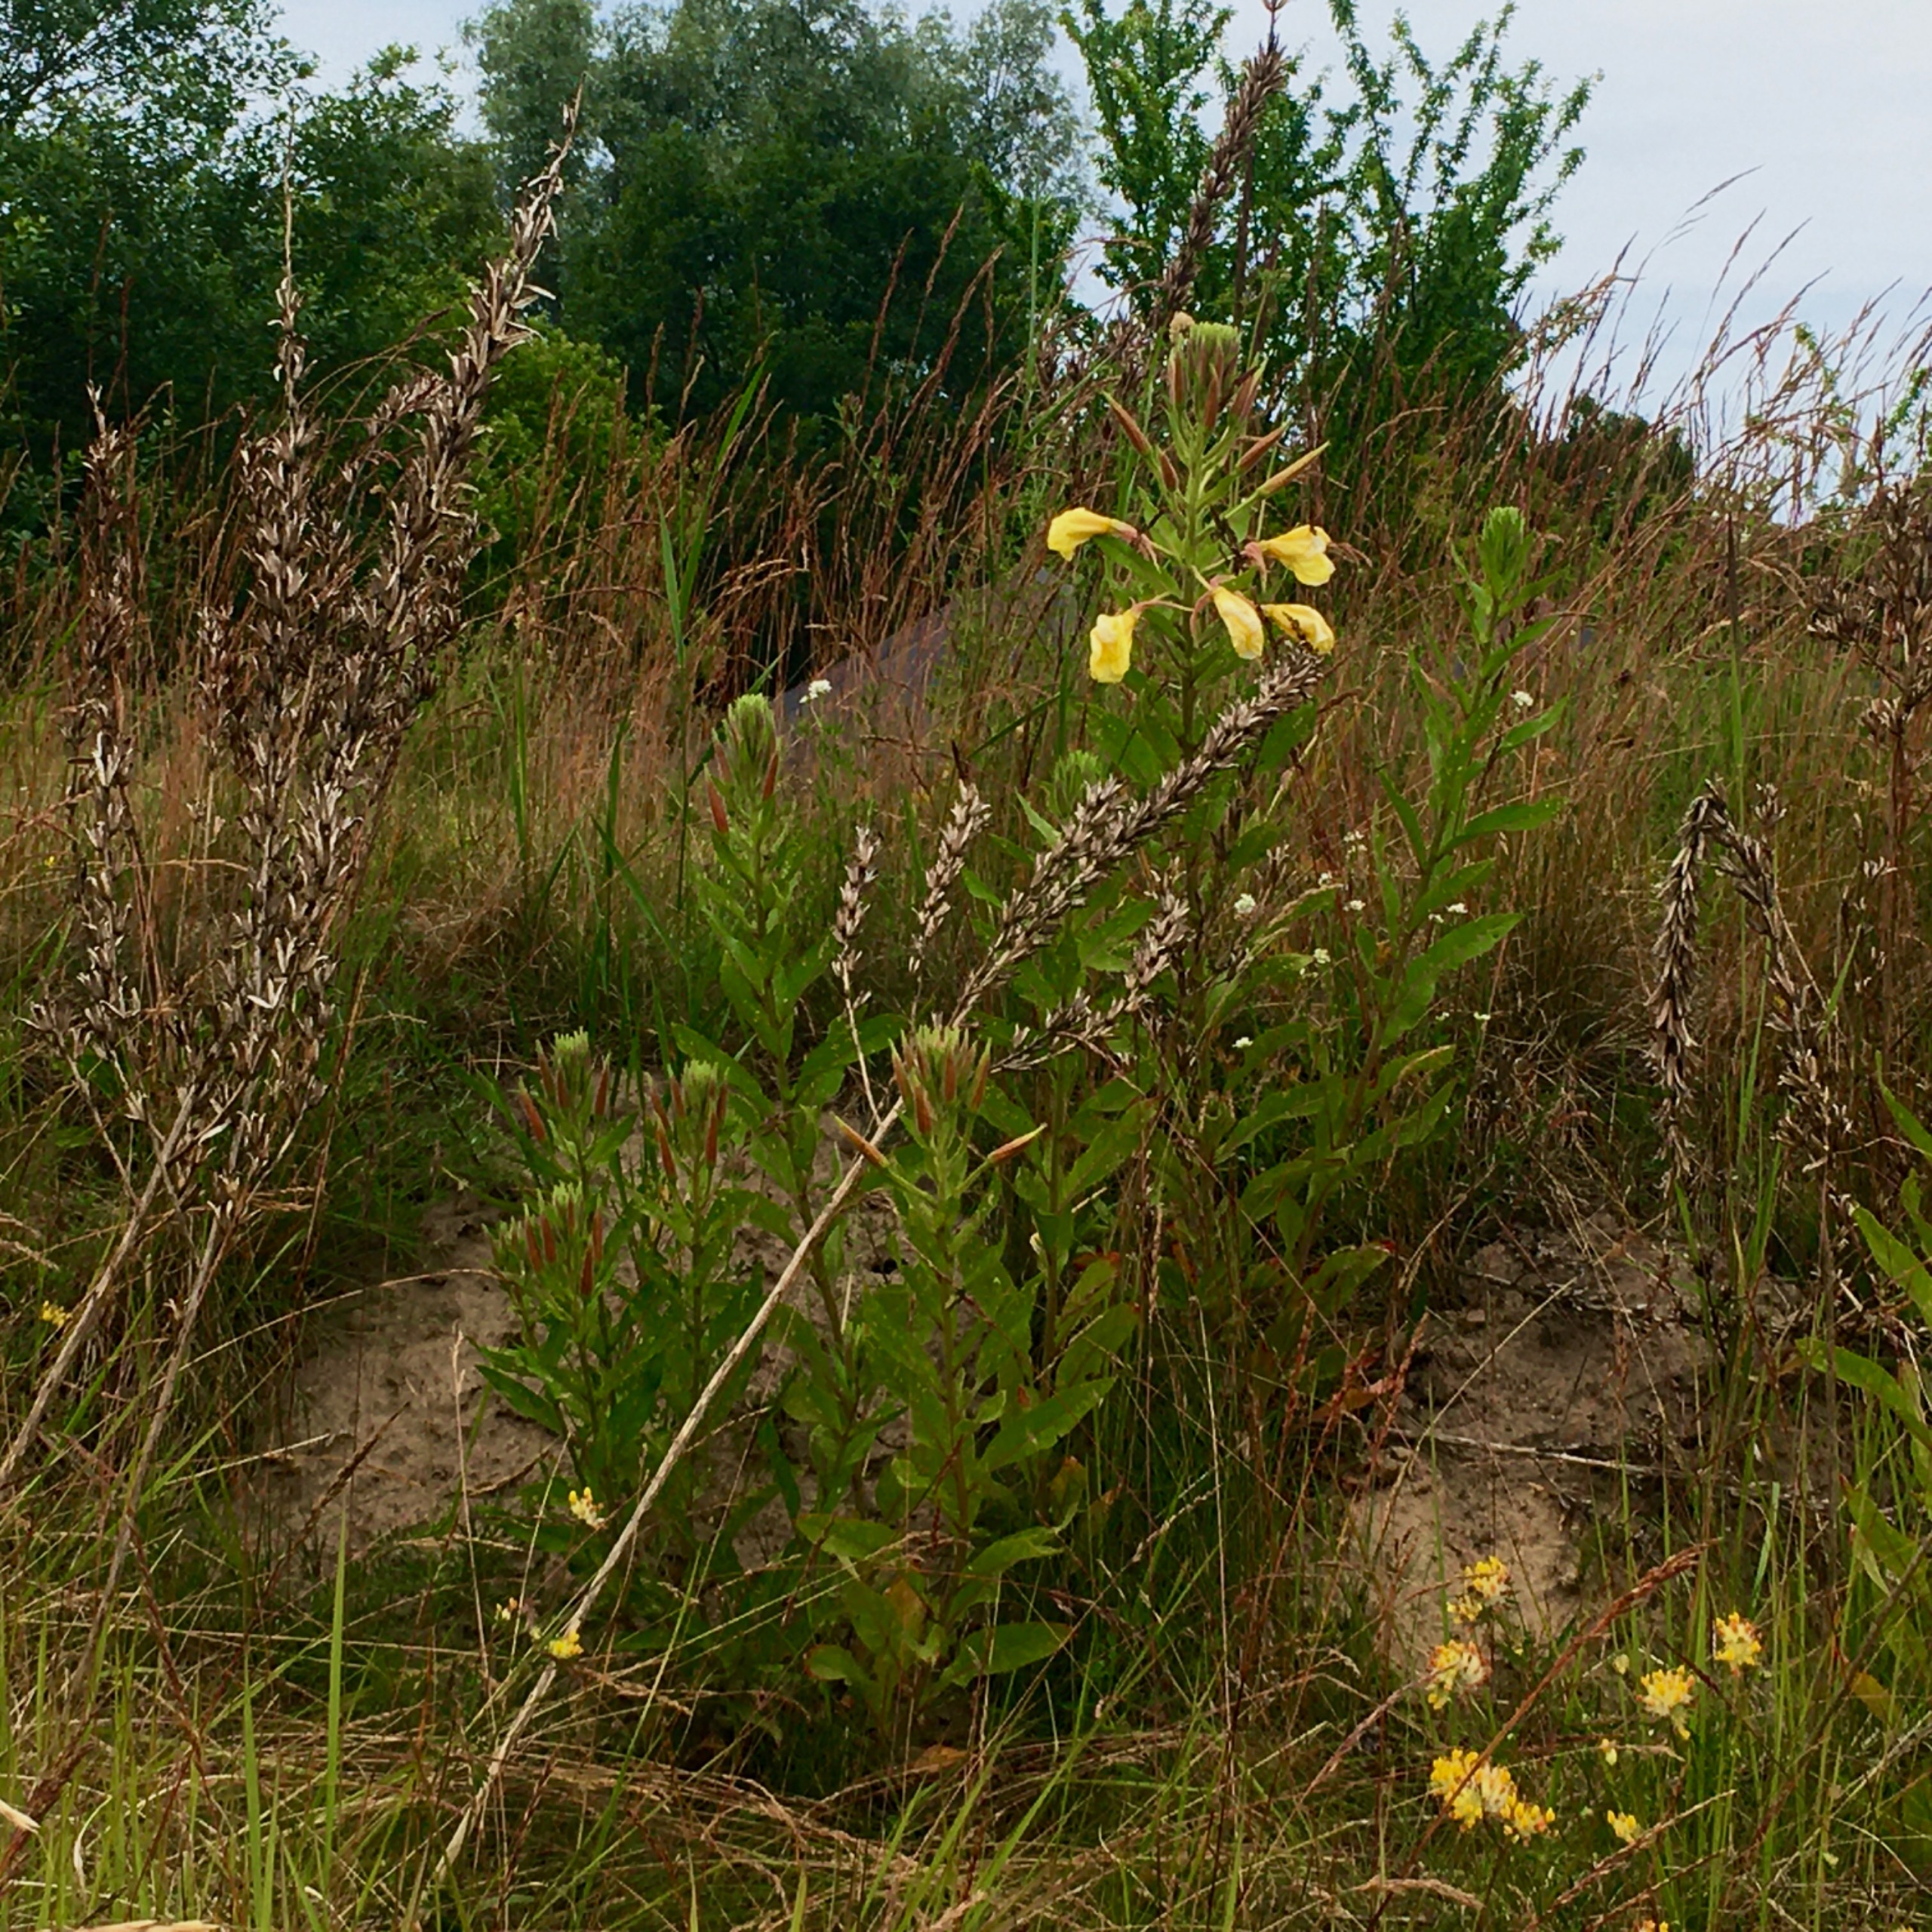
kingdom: Plantae
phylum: Tracheophyta
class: Magnoliopsida
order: Myrtales
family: Onagraceae
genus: Oenothera
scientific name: Oenothera glazioviana
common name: Kæmpe-natlys
